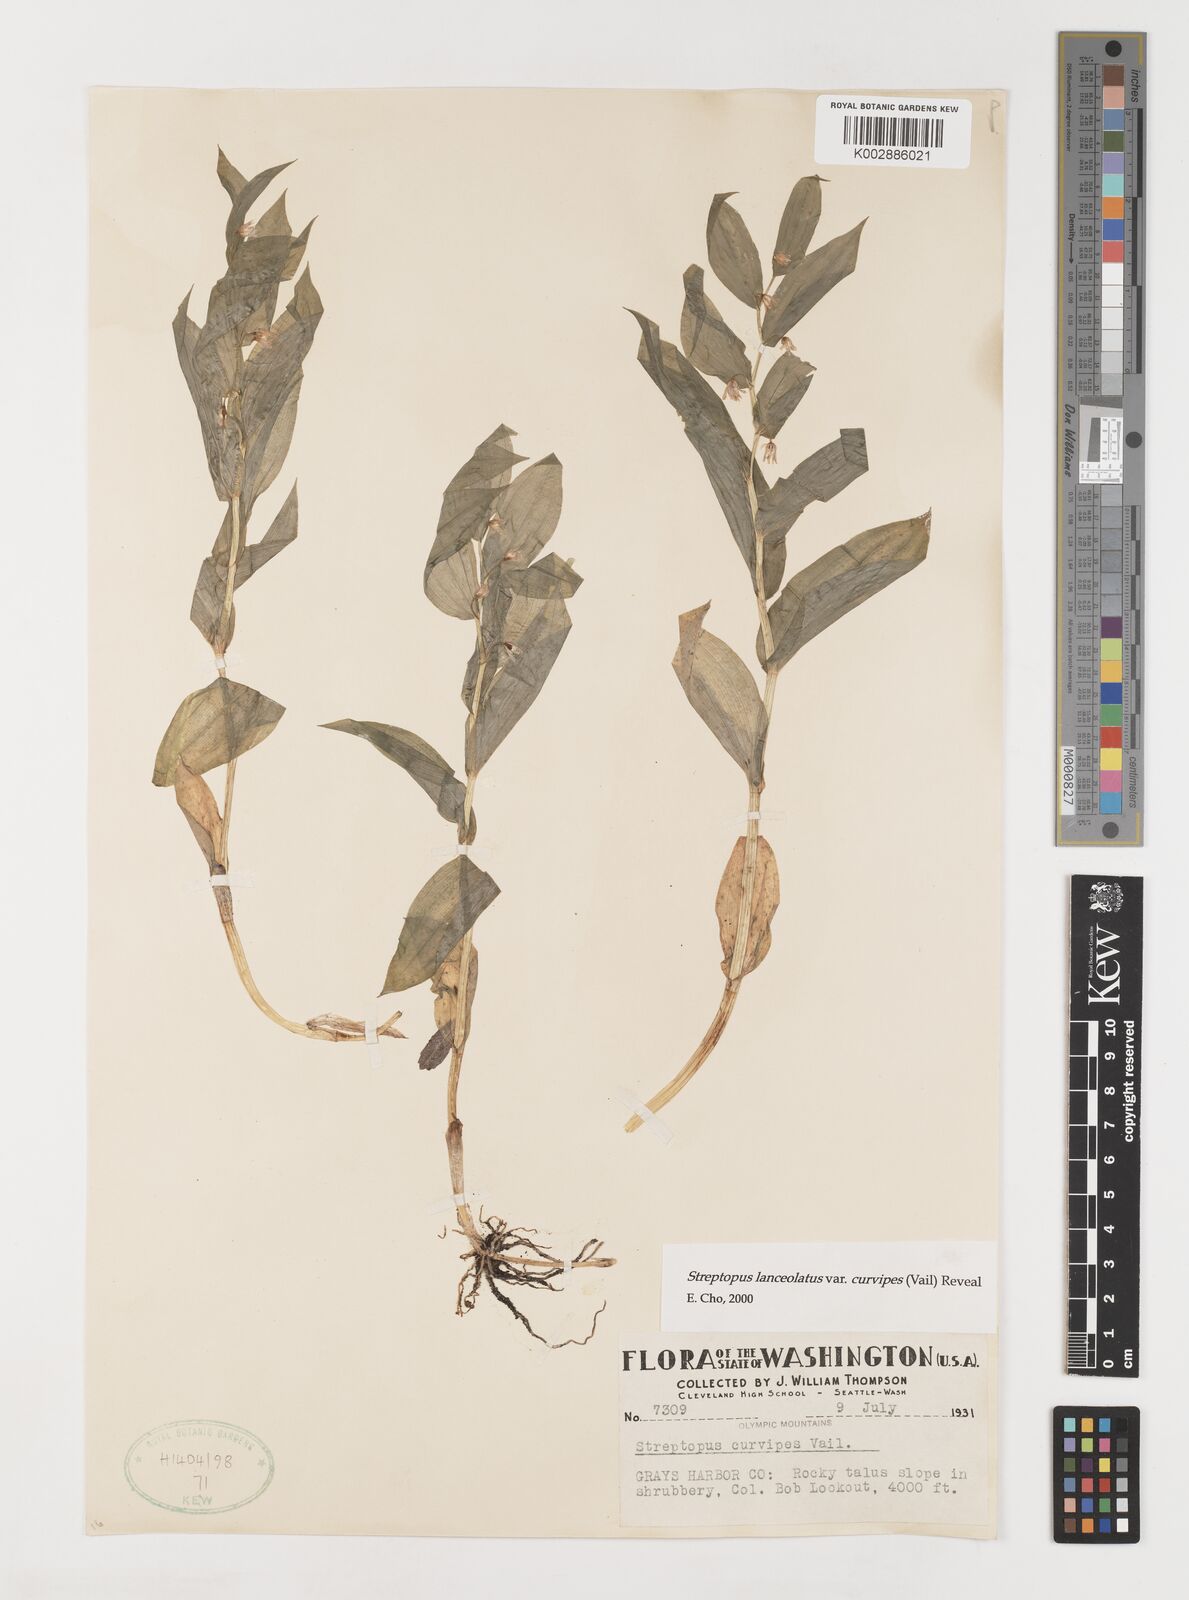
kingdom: Plantae
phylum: Tracheophyta
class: Liliopsida
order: Liliales
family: Liliaceae
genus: Streptopus
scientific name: Streptopus lanceolatus
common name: Rose mandarin
